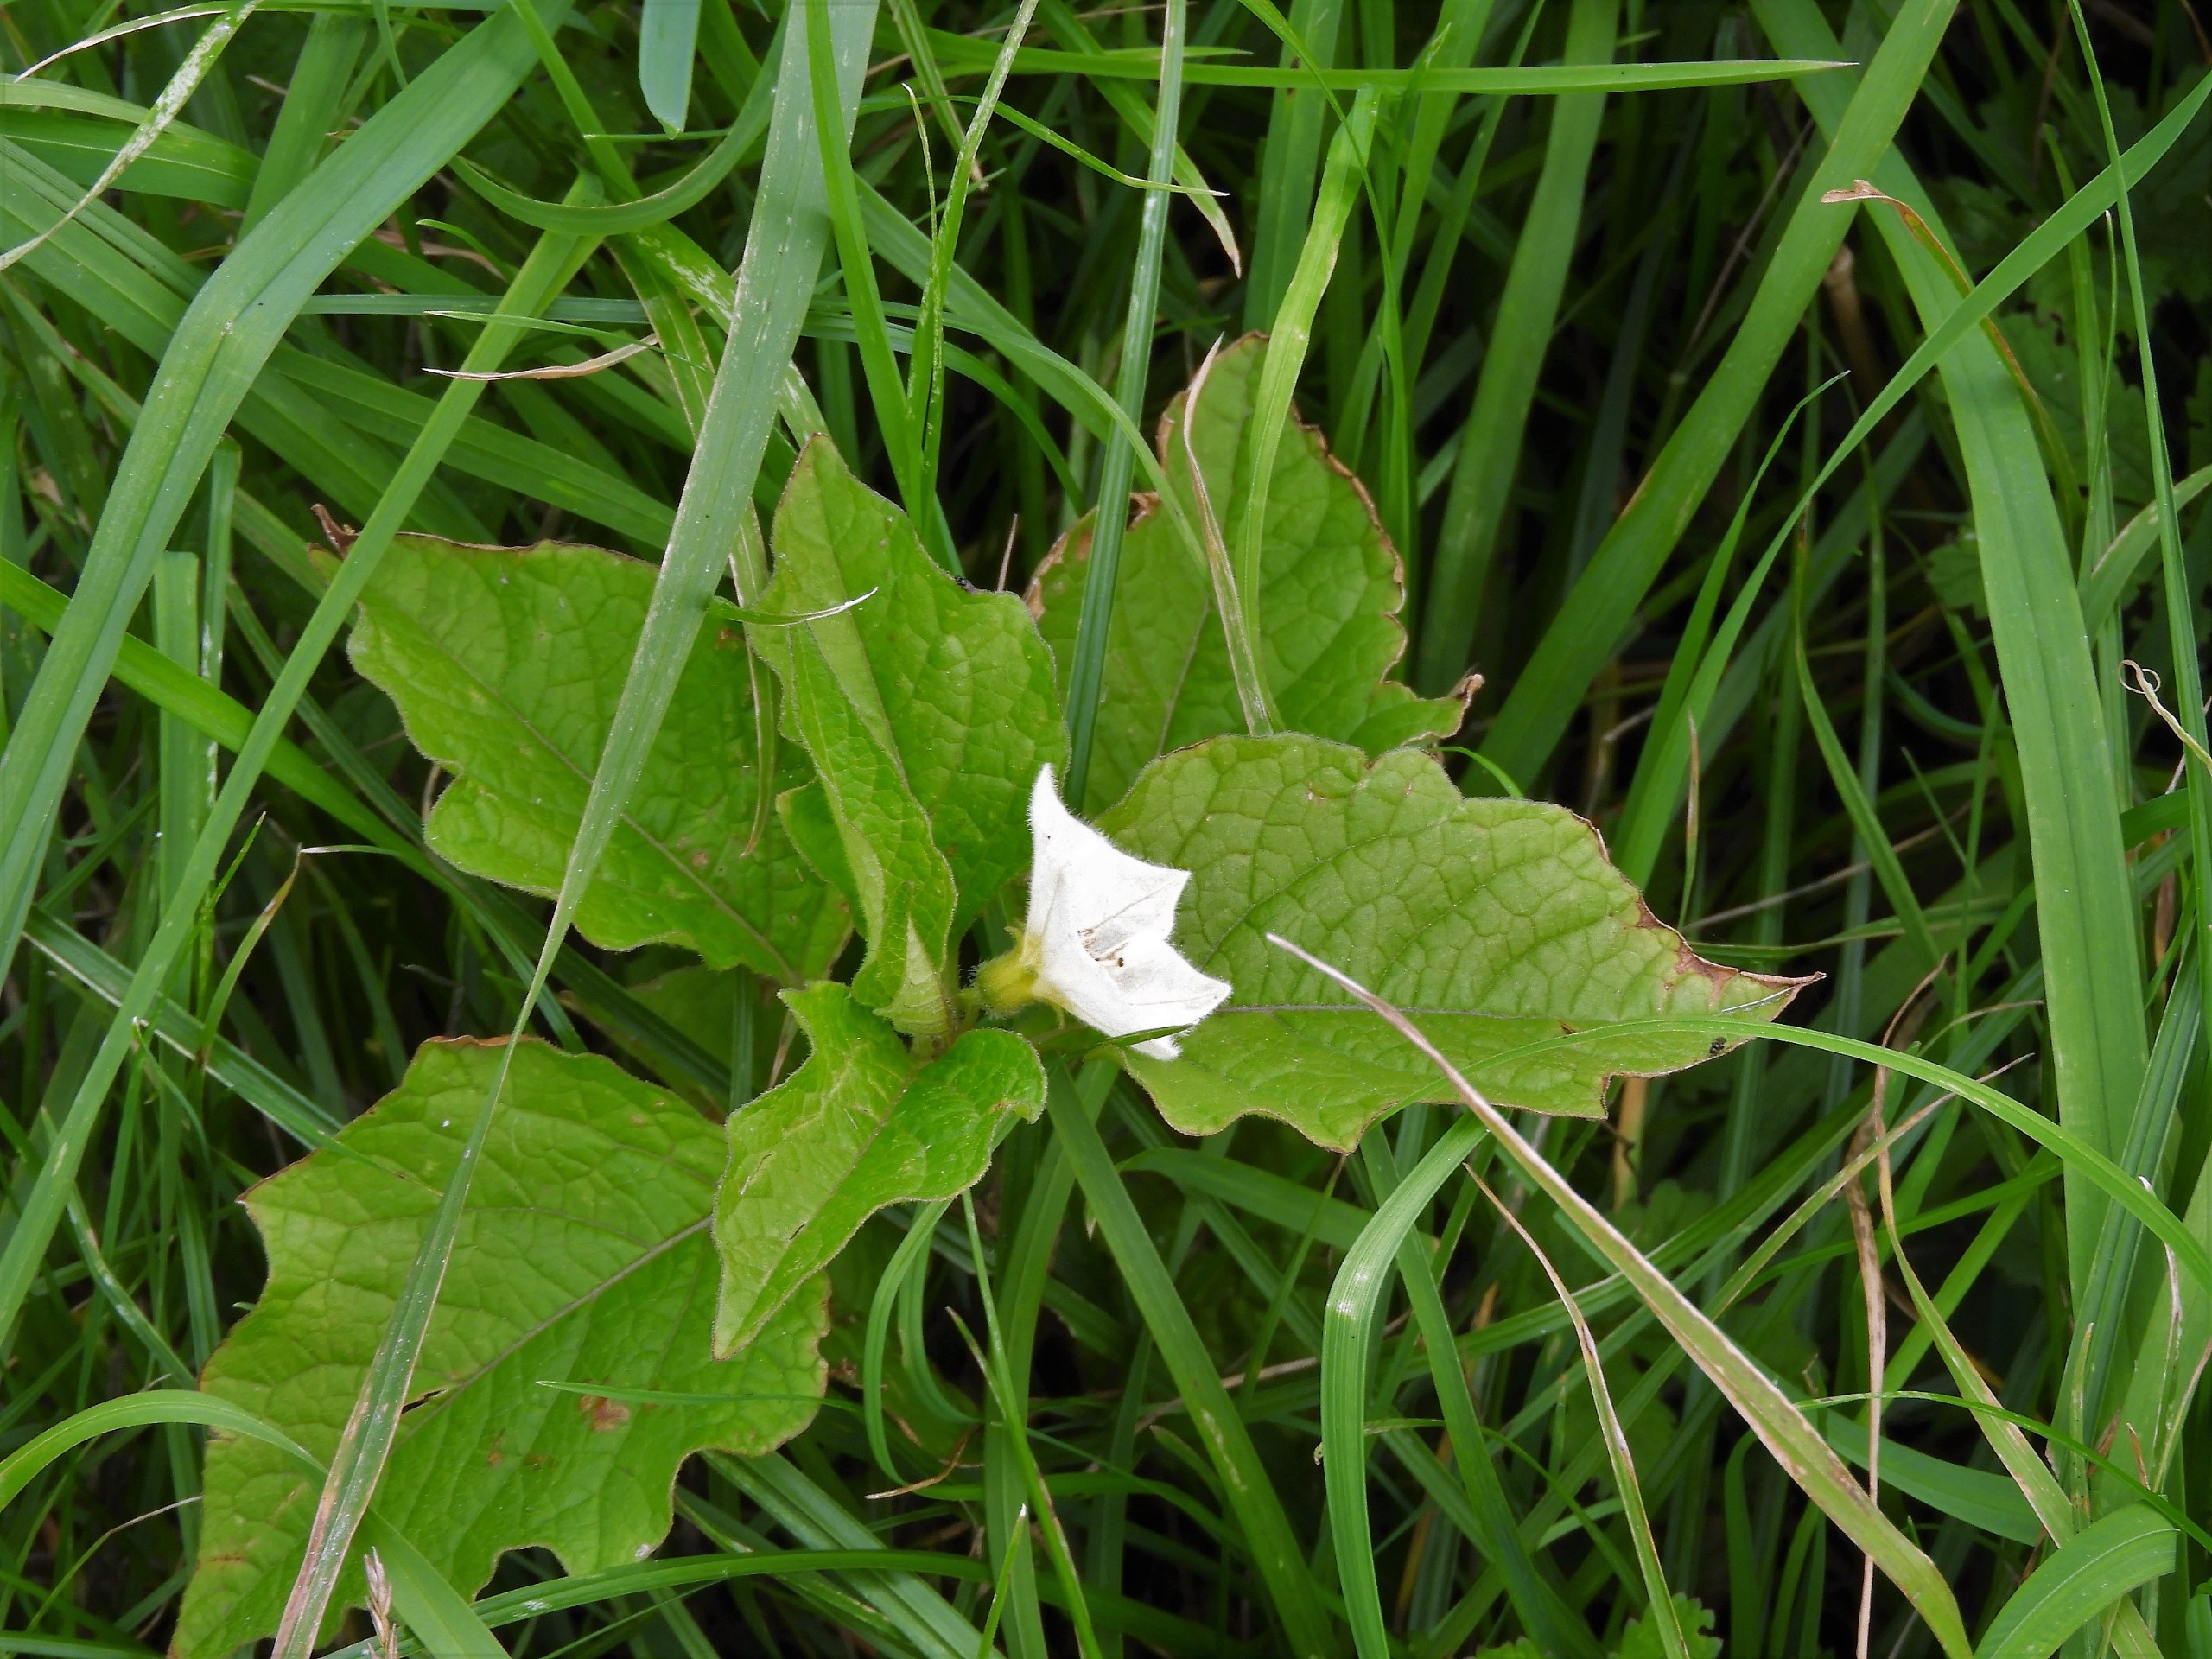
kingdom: Plantae
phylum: Tracheophyta
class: Magnoliopsida
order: Solanales
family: Solanaceae
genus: Alkekengi
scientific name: Alkekengi officinarum
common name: Jødekirsebær
